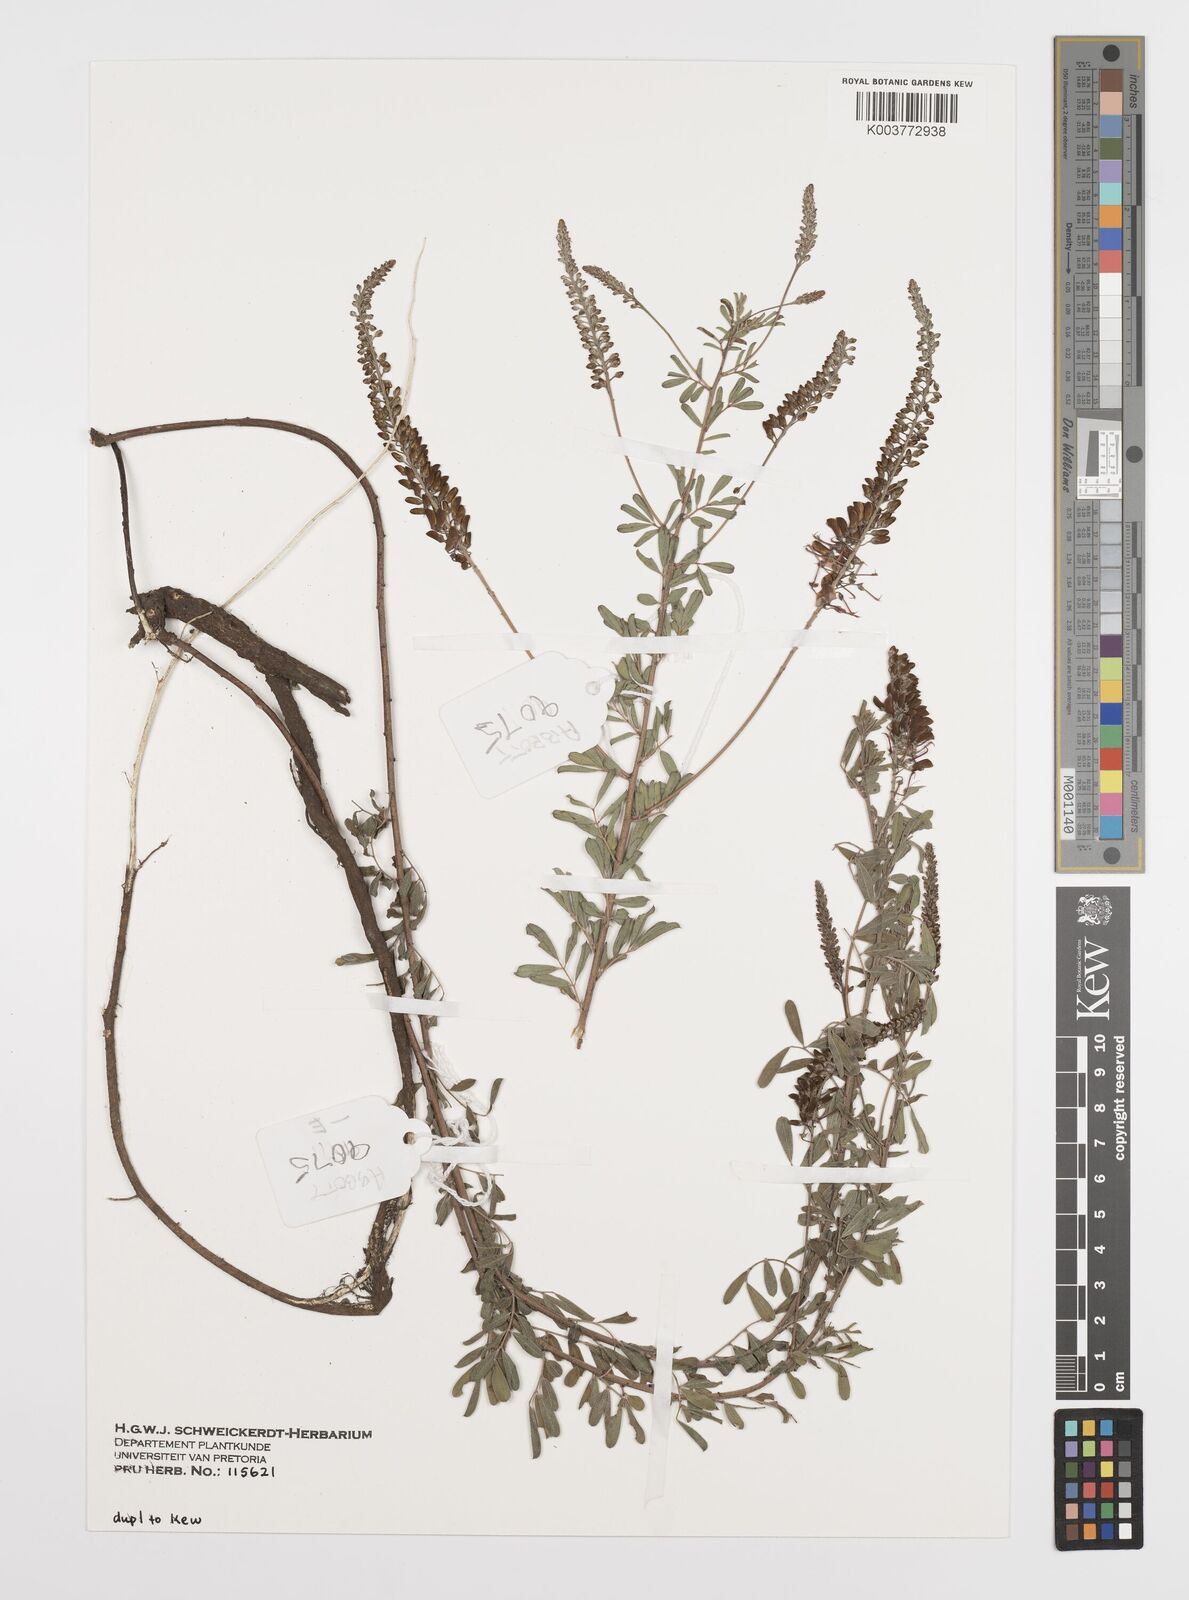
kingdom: Plantae
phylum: Tracheophyta
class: Magnoliopsida
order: Fabales
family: Fabaceae
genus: Indigofera
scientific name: Indigofera
